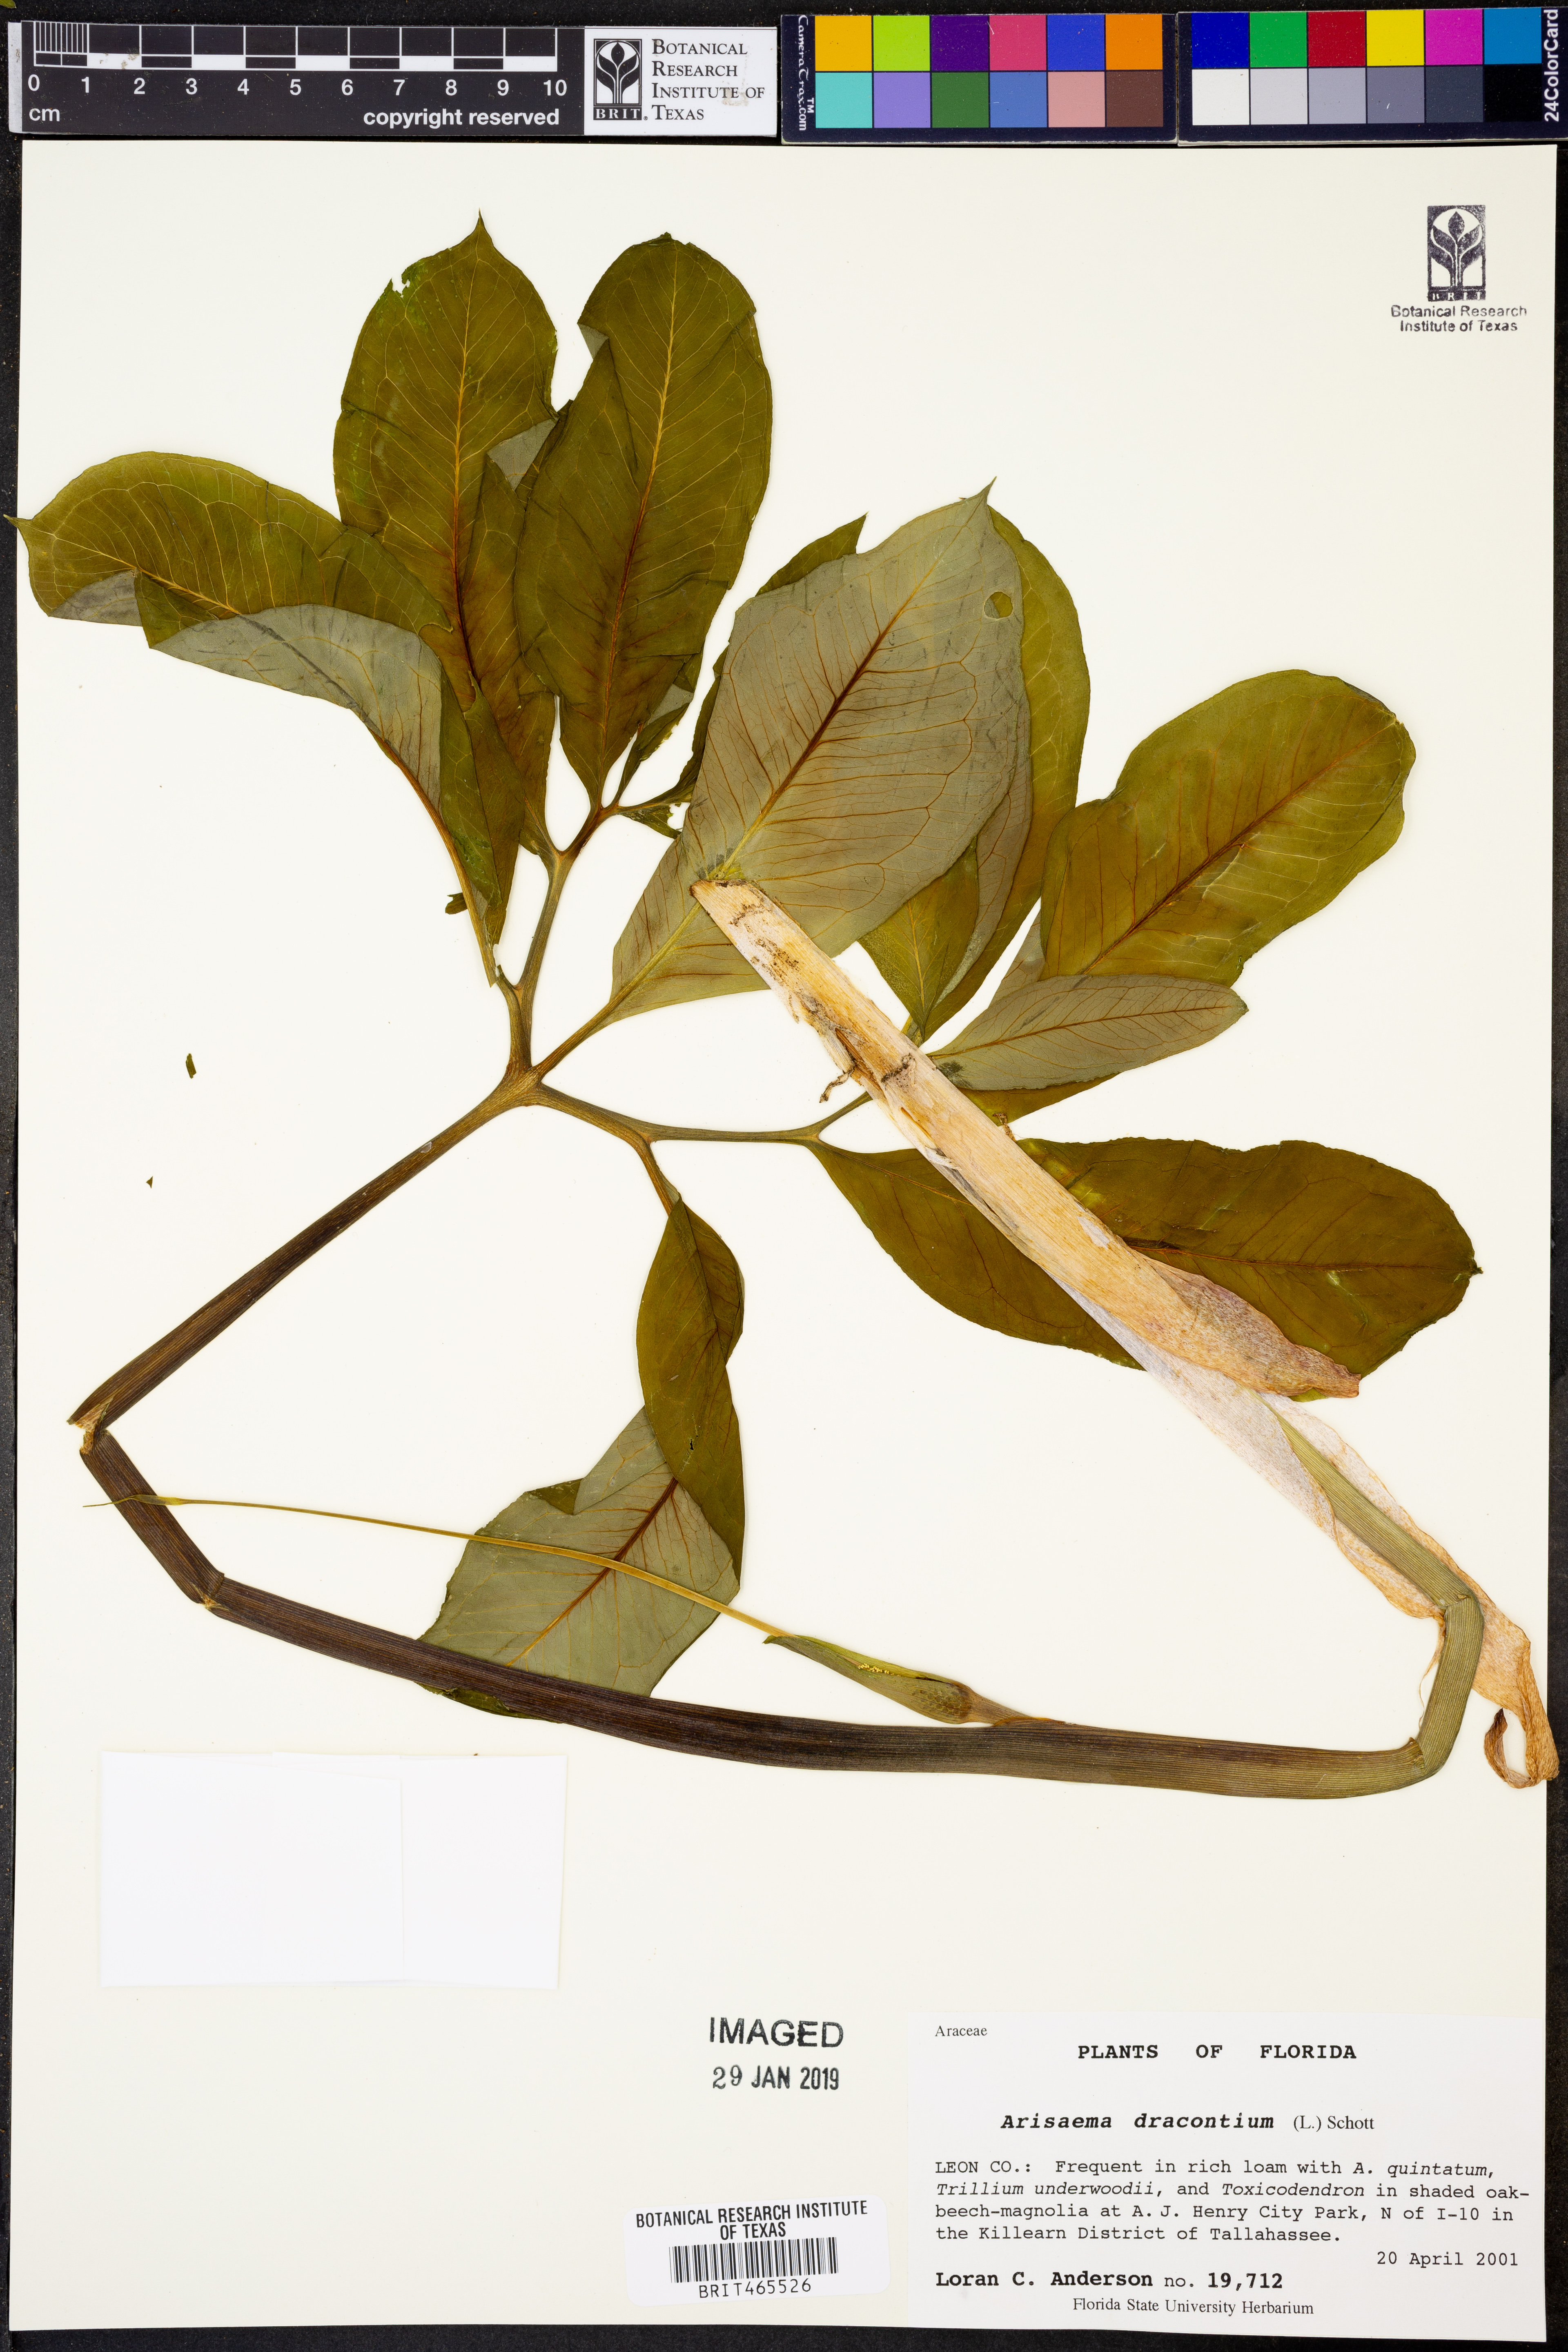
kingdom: Plantae
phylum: Tracheophyta
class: Liliopsida
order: Alismatales
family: Araceae
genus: Arisaema
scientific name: Arisaema dracontium
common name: Dragon-arum
